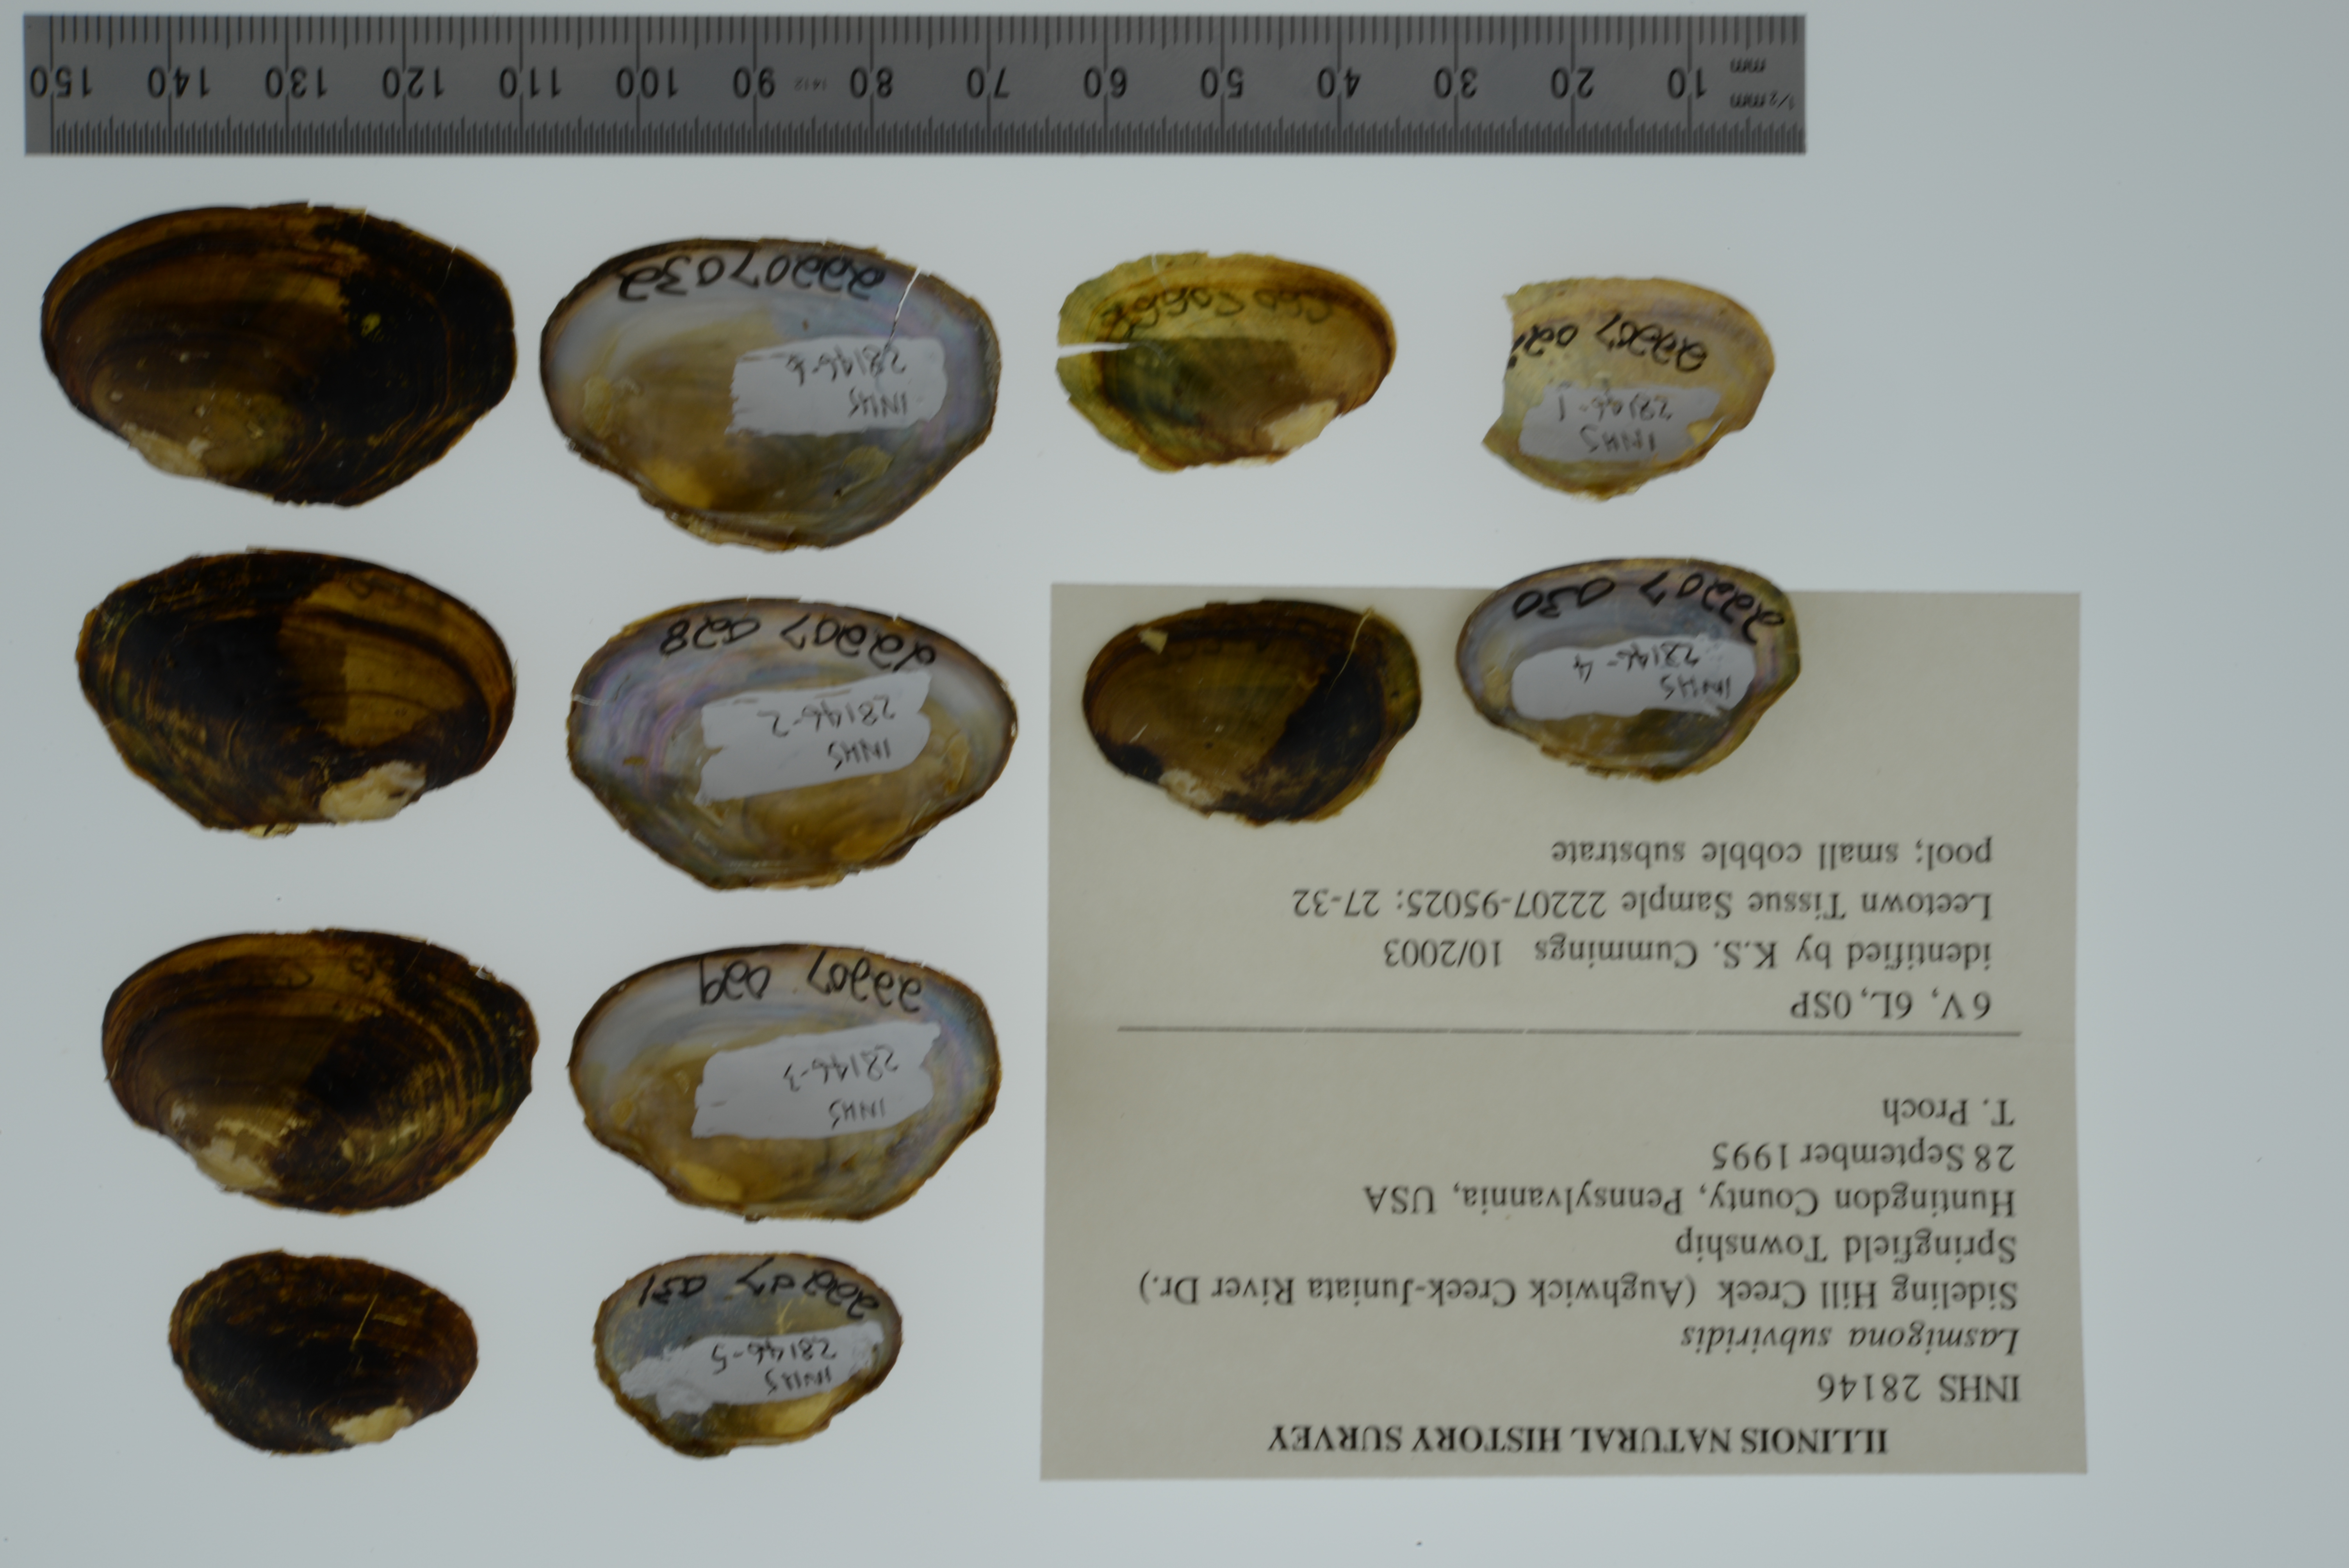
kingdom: Animalia
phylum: Mollusca
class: Bivalvia
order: Unionida
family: Unionidae
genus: Lasmigona
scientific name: Lasmigona subviridis
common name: Green floater
